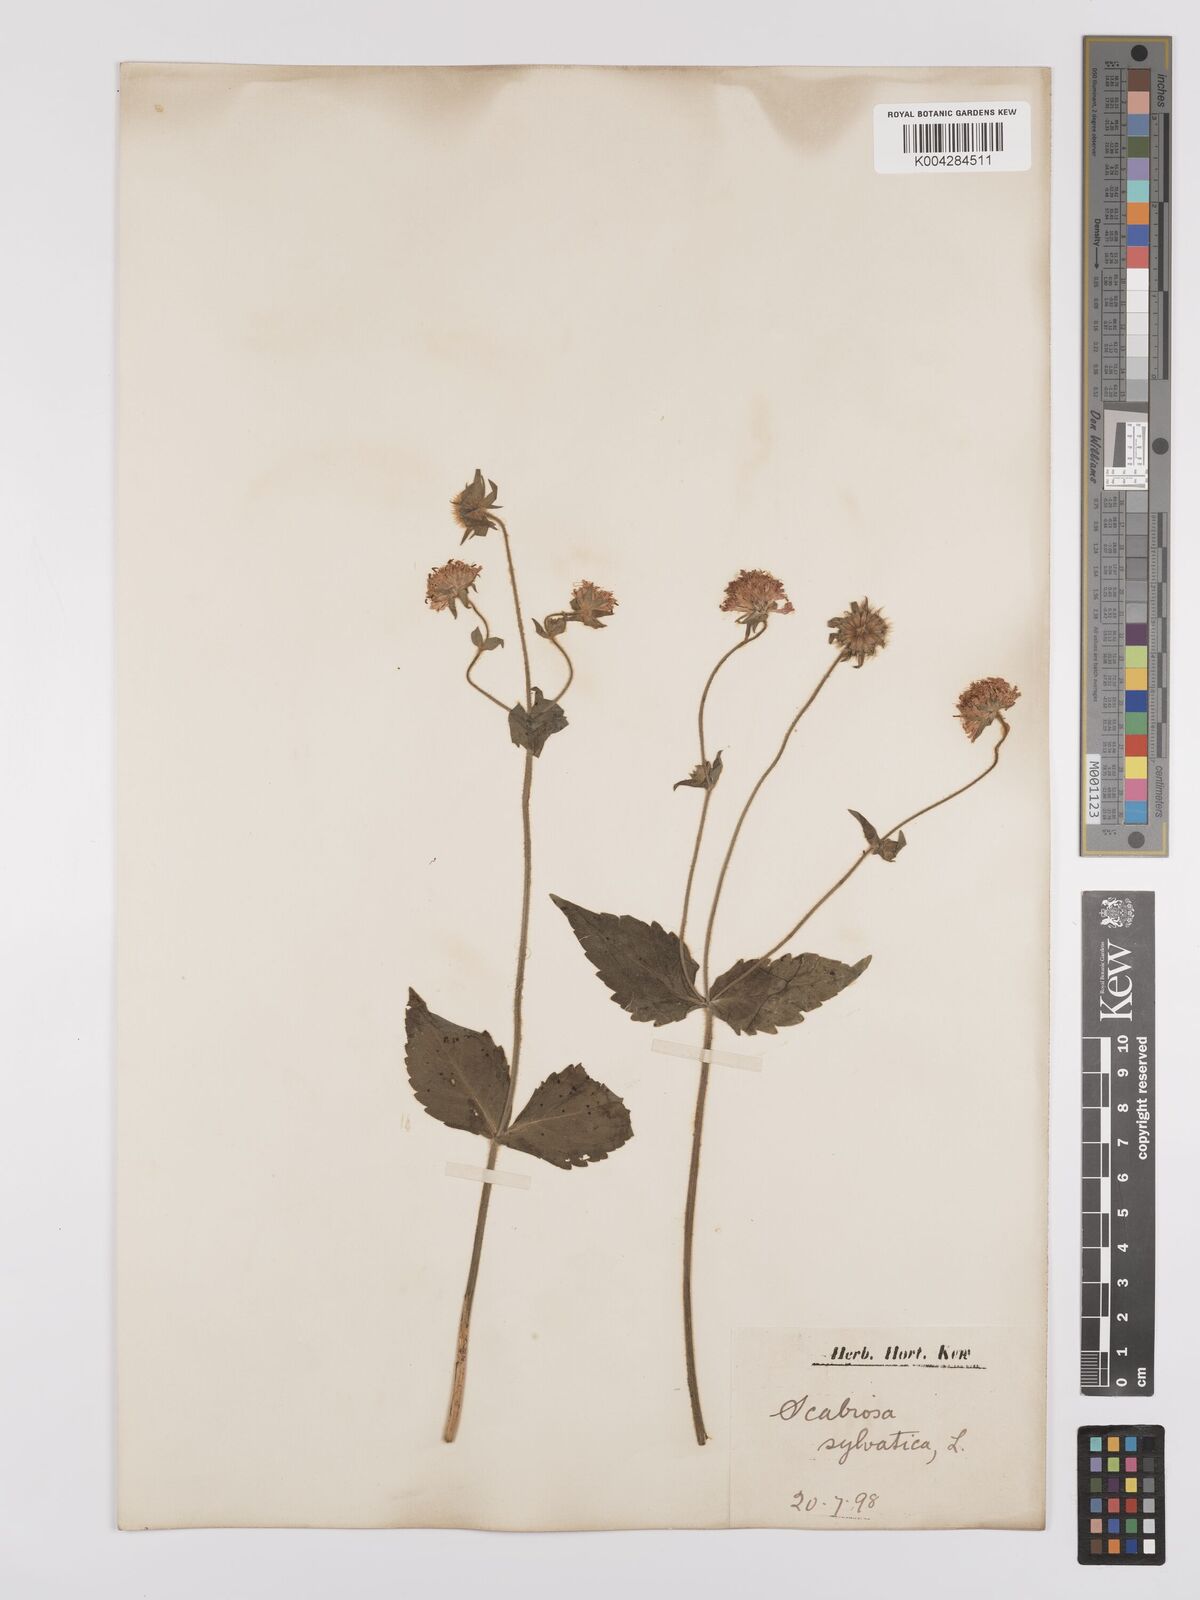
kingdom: Plantae
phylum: Tracheophyta
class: Magnoliopsida
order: Dipsacales
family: Caprifoliaceae
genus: Knautia
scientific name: Knautia drymeia
